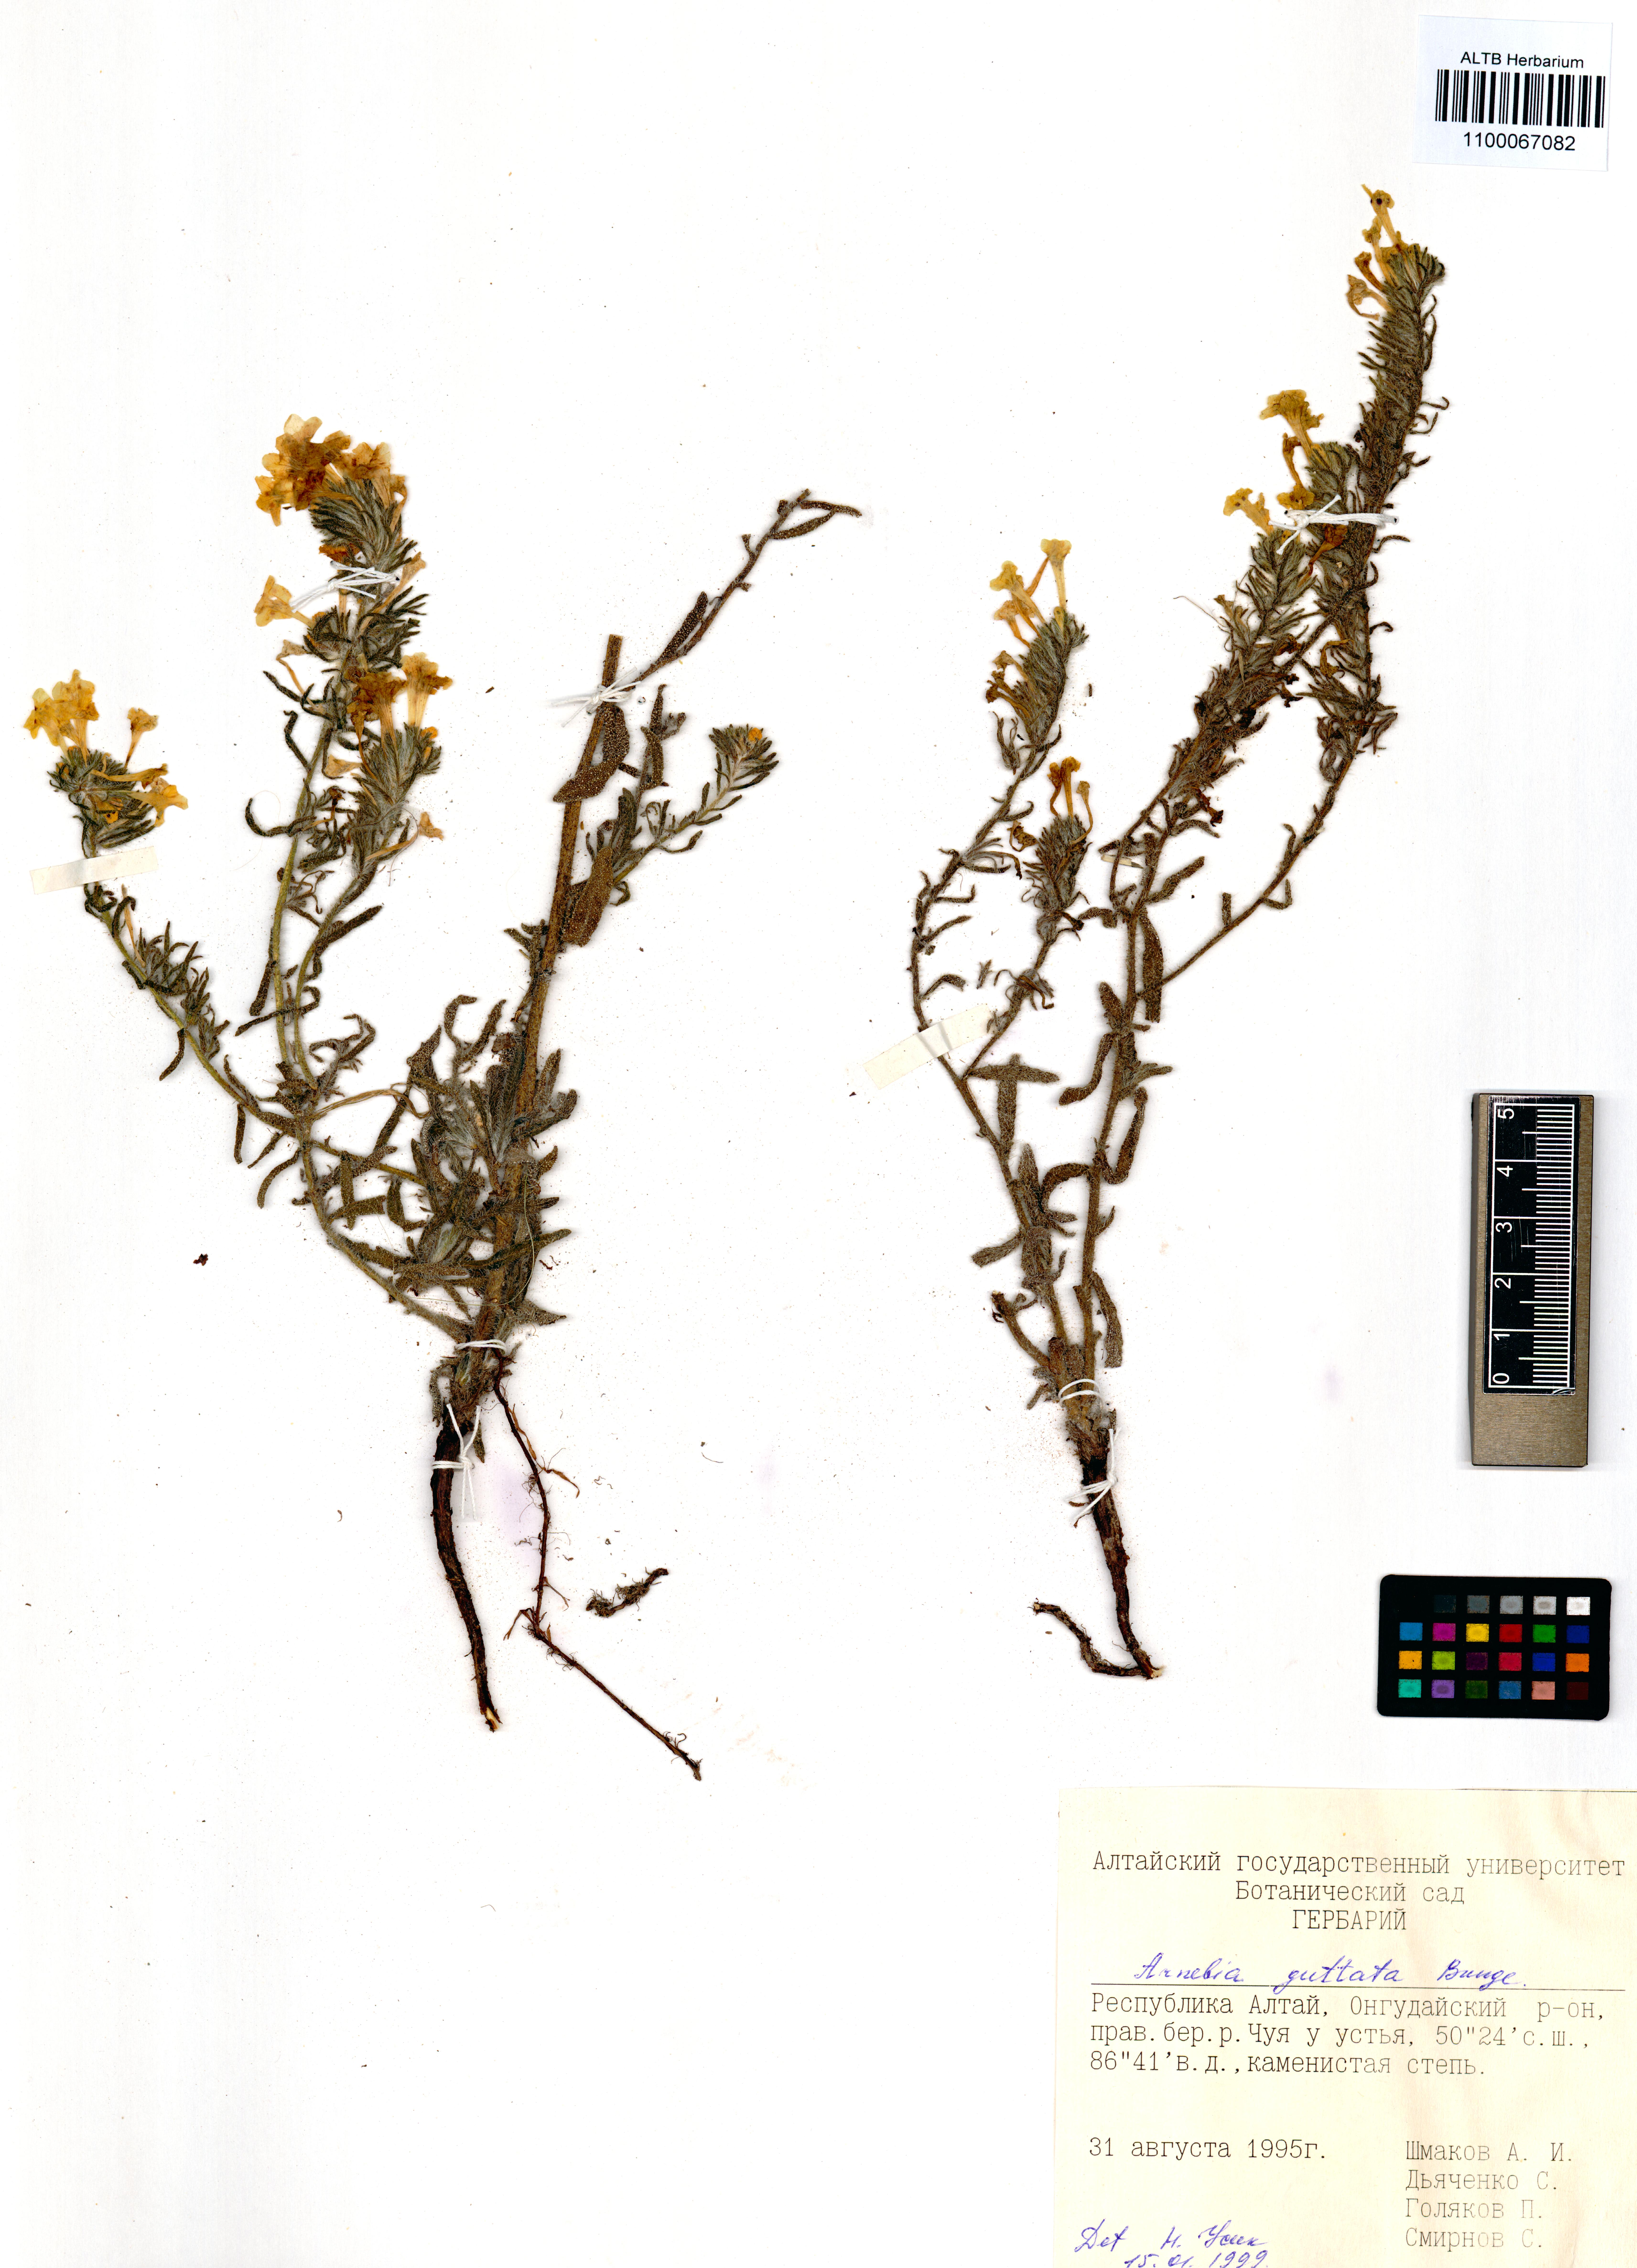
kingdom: Plantae
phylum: Tracheophyta
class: Magnoliopsida
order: Boraginales
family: Boraginaceae
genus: Arnebia
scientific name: Arnebia guttata
